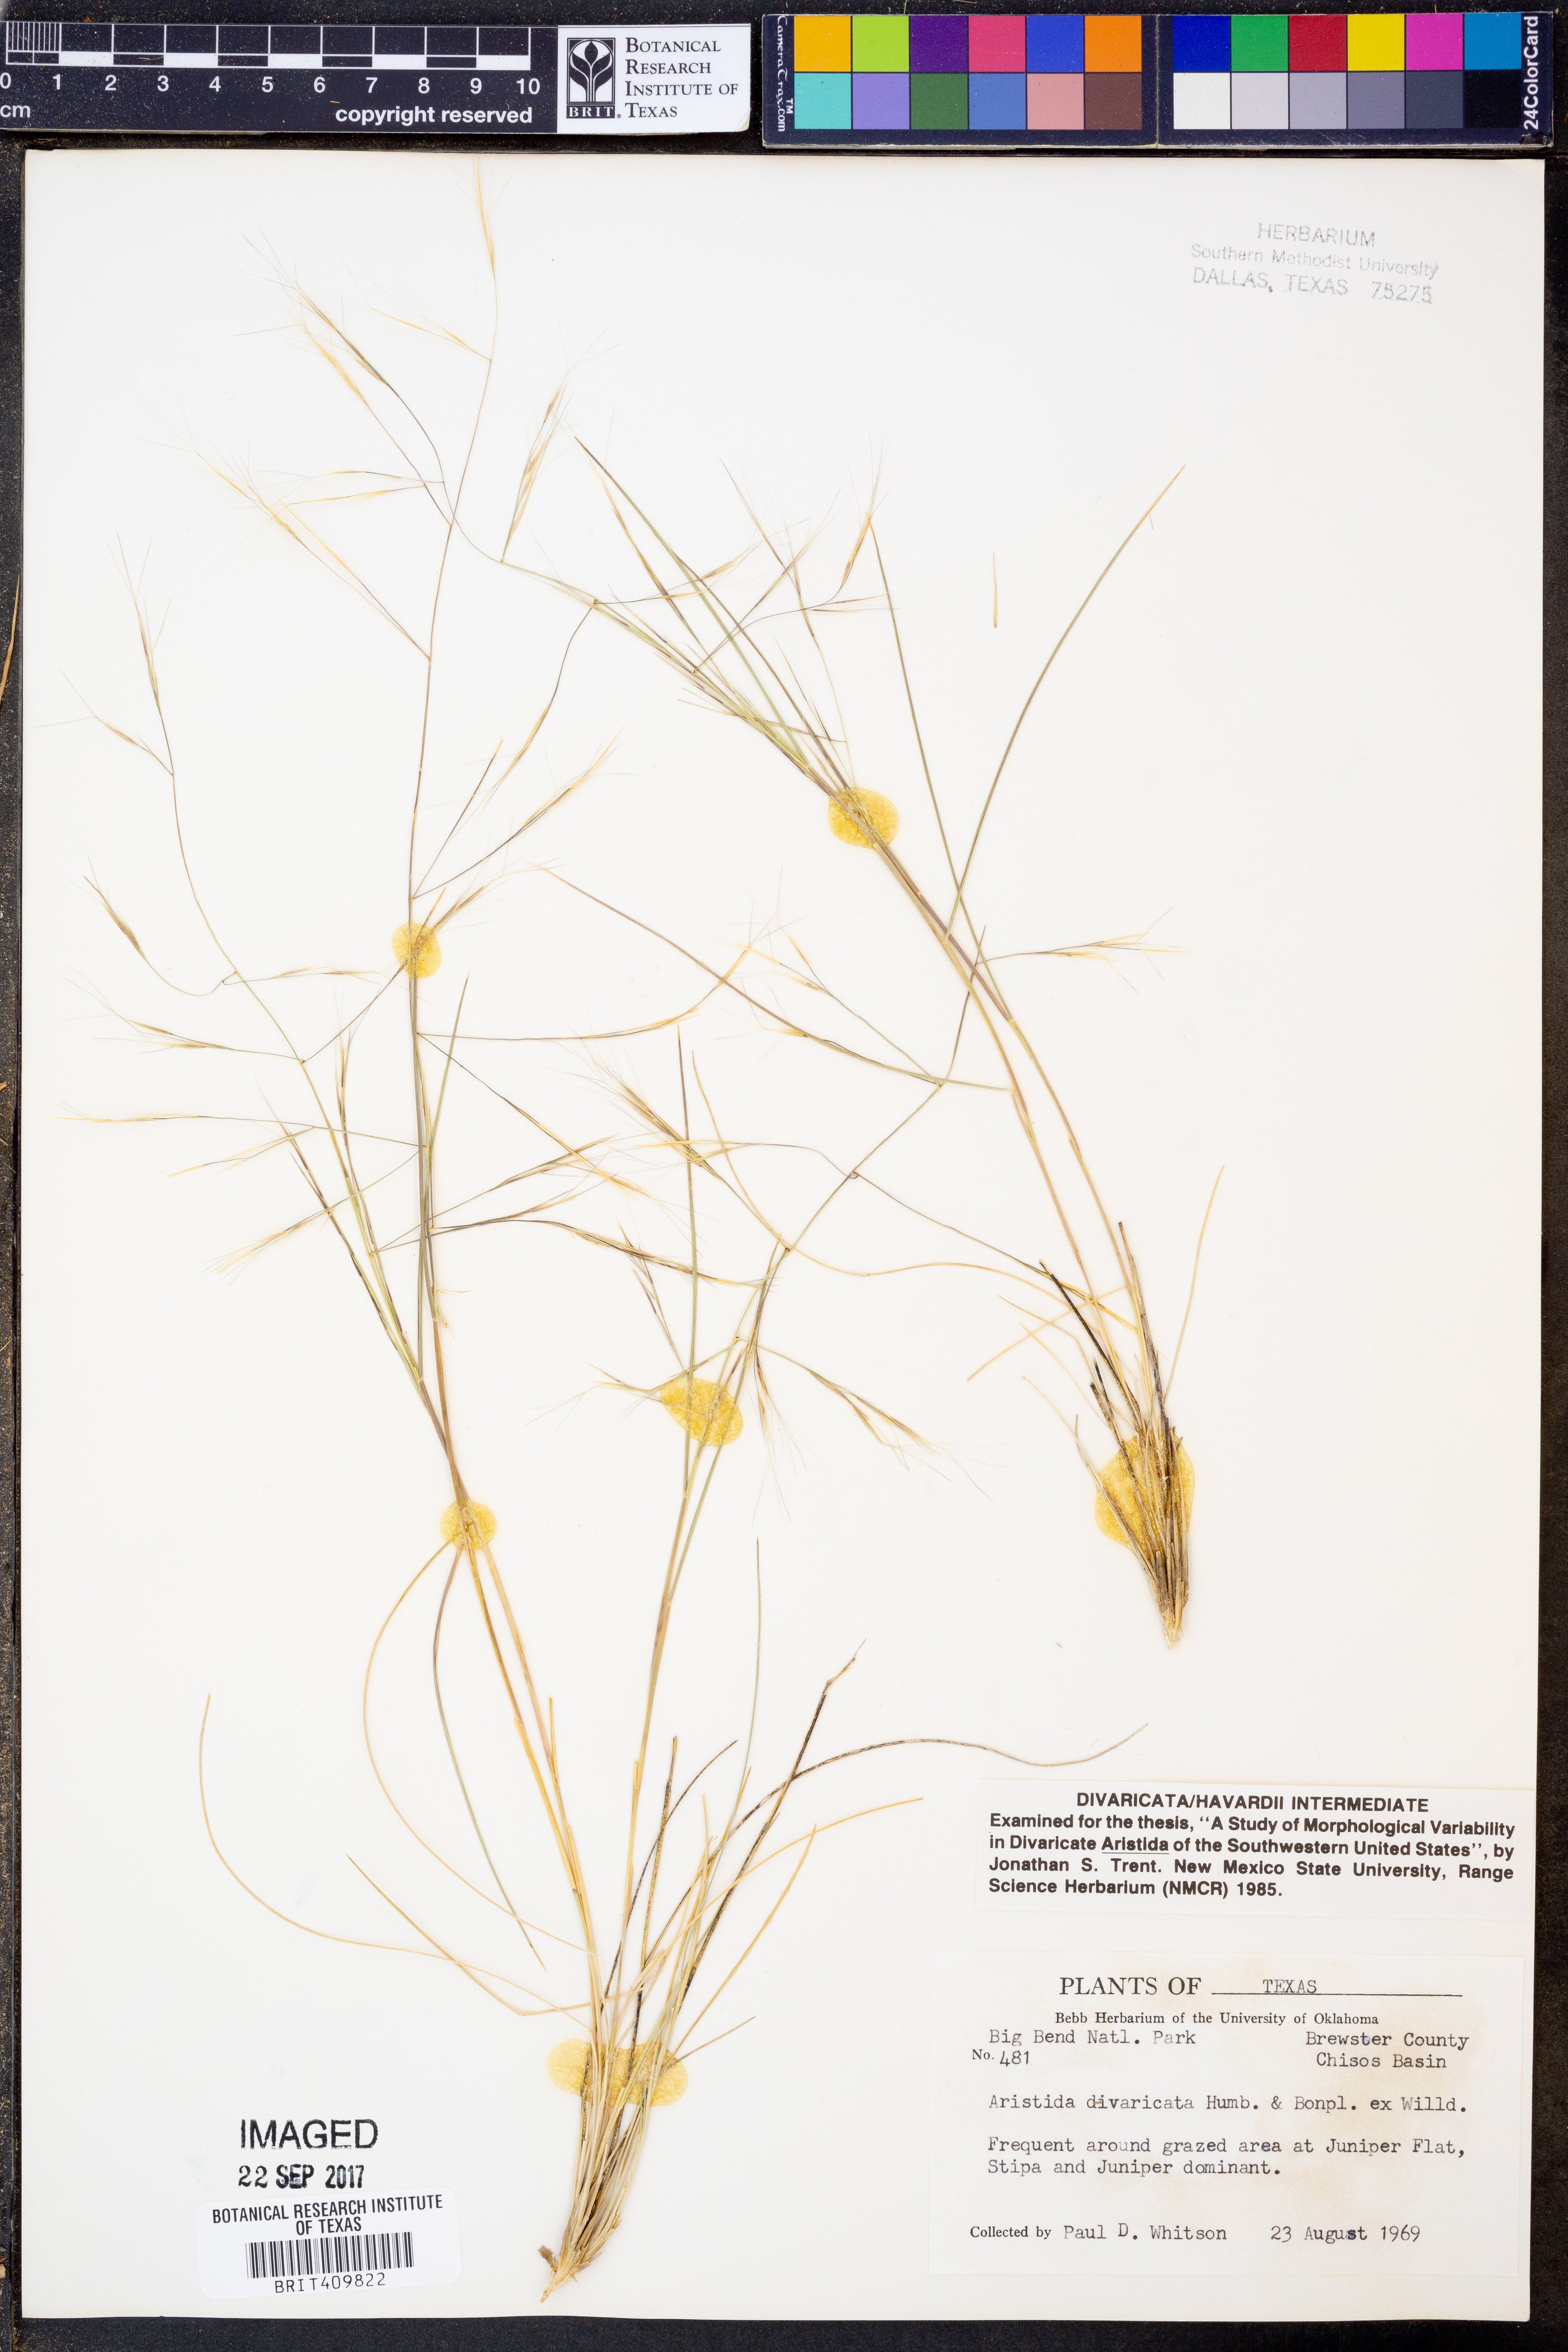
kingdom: Plantae
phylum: Tracheophyta
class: Liliopsida
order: Poales
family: Poaceae
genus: Aristida
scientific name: Aristida divaricata
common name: Poverty grass
